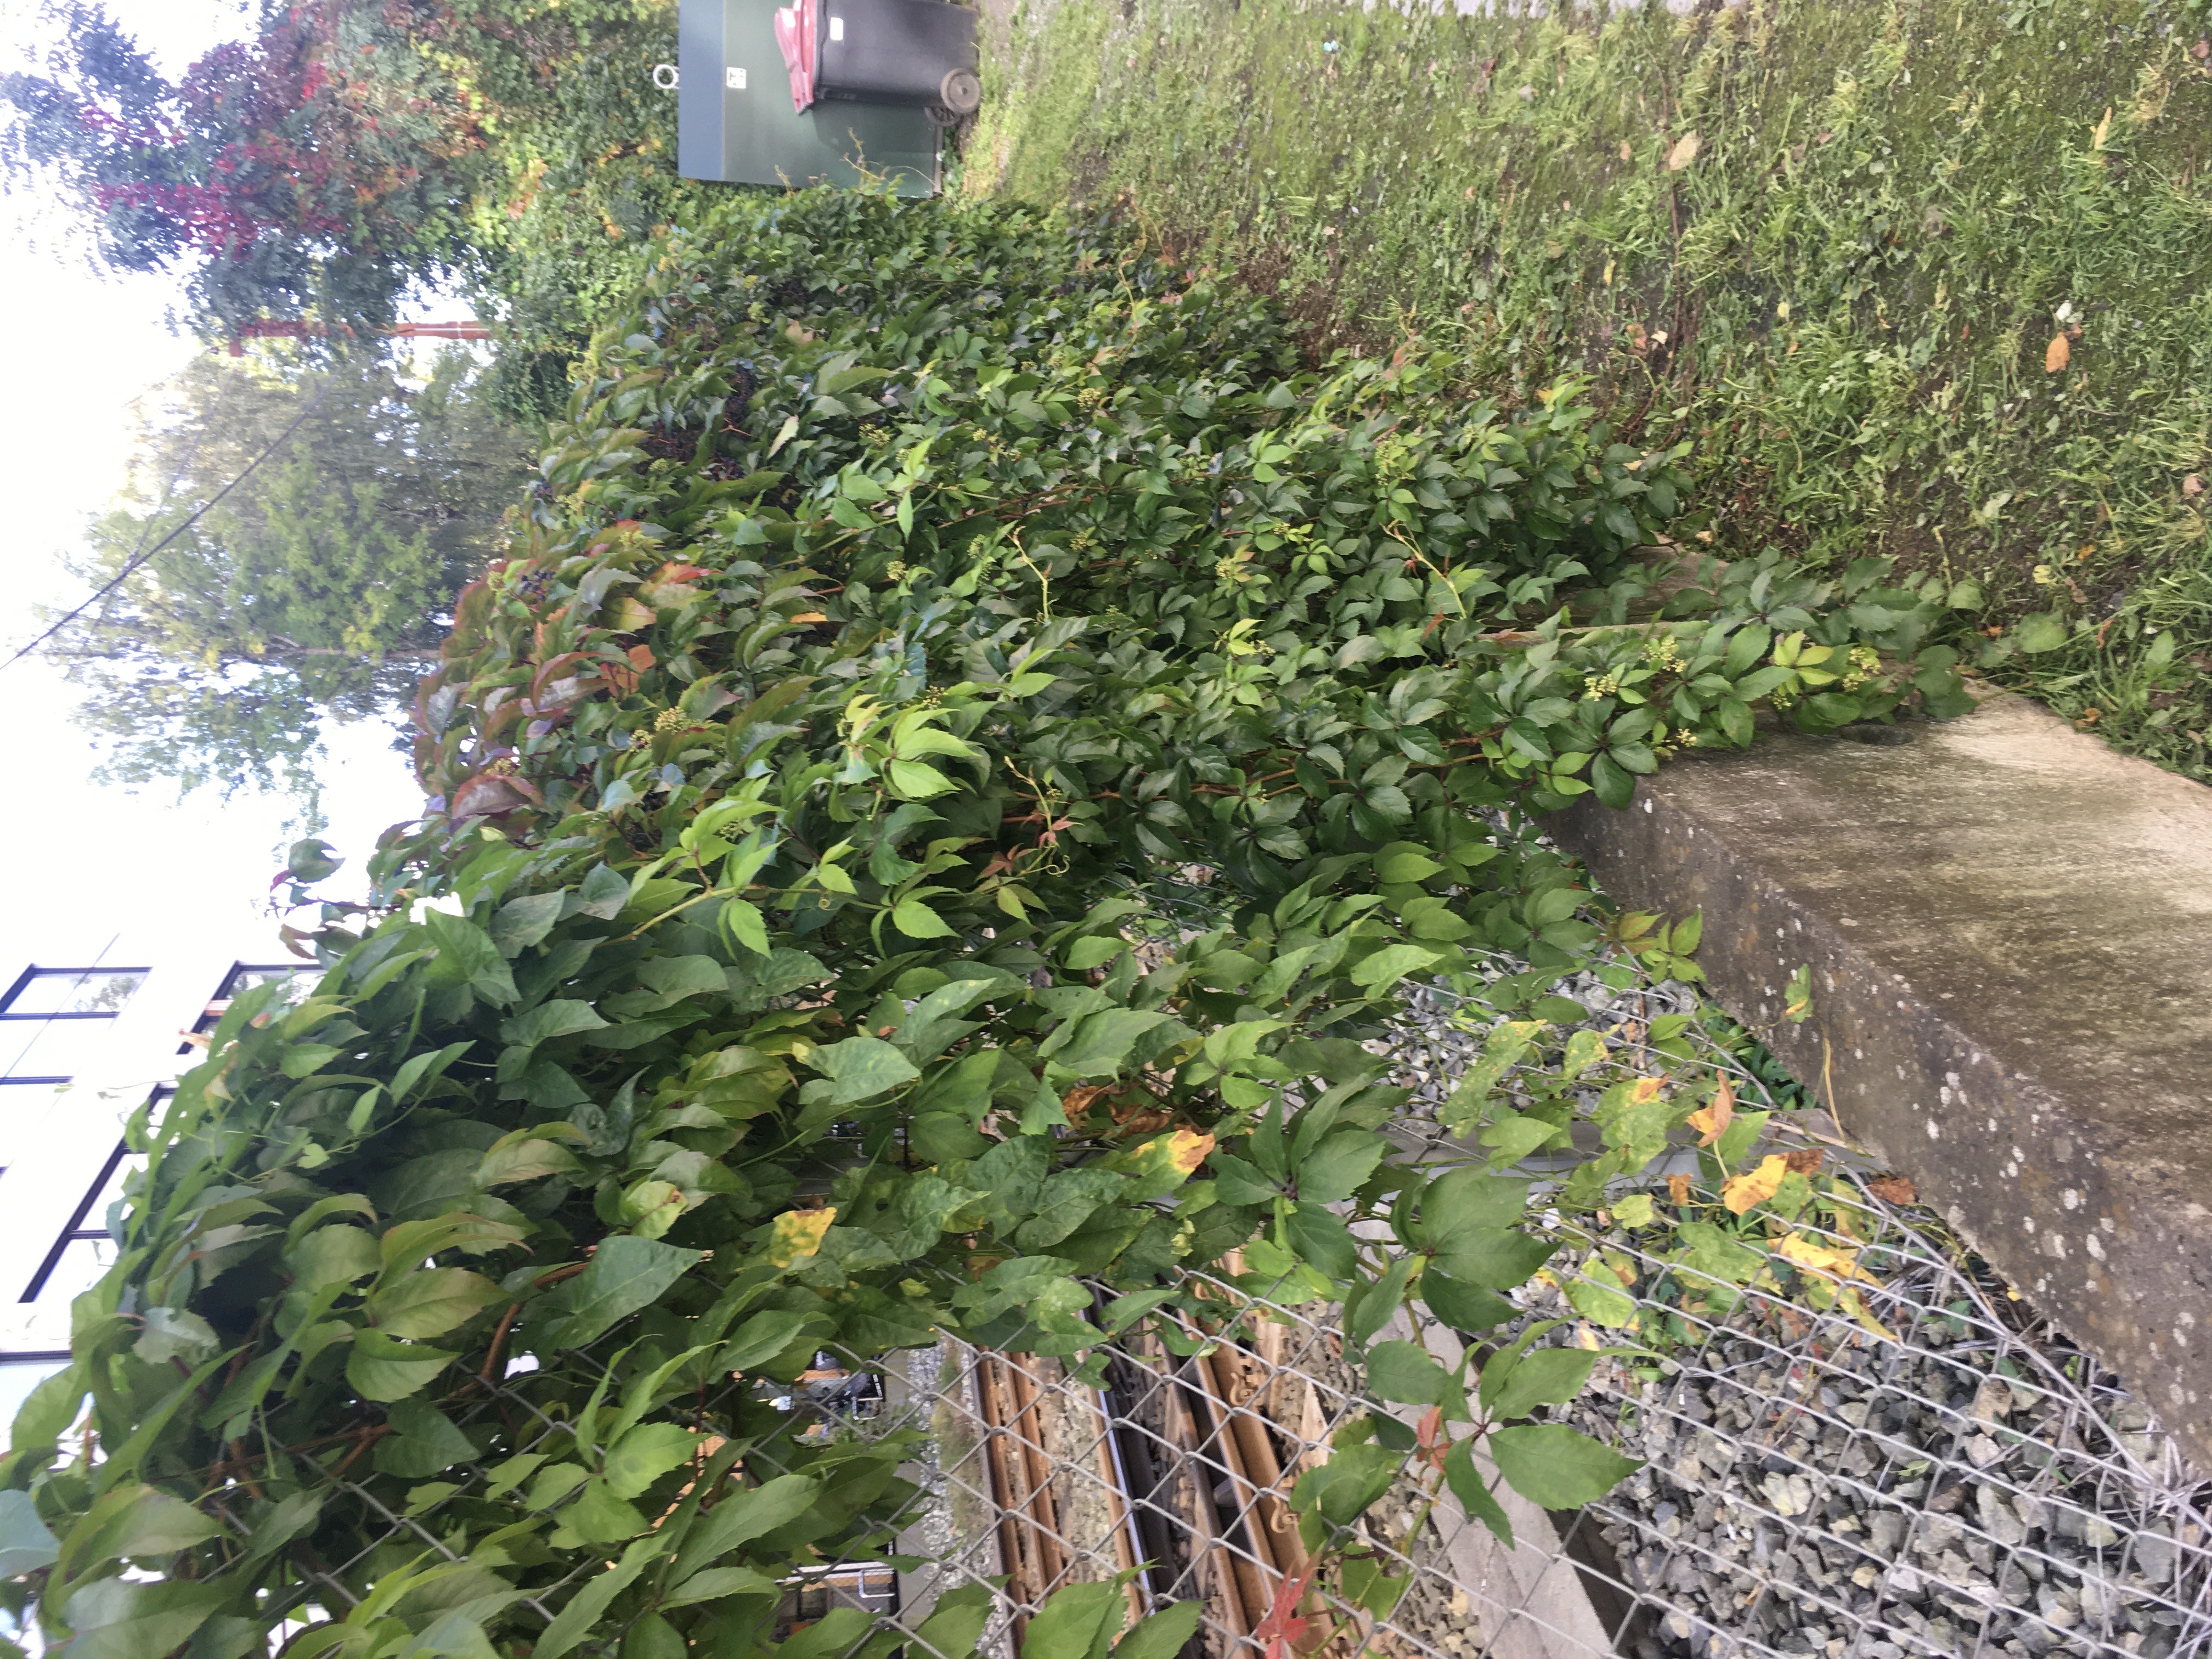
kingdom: Plantae
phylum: Tracheophyta
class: Magnoliopsida
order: Vitales
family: Vitaceae
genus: Parthenocissus
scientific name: Parthenocissus quinquefolia
